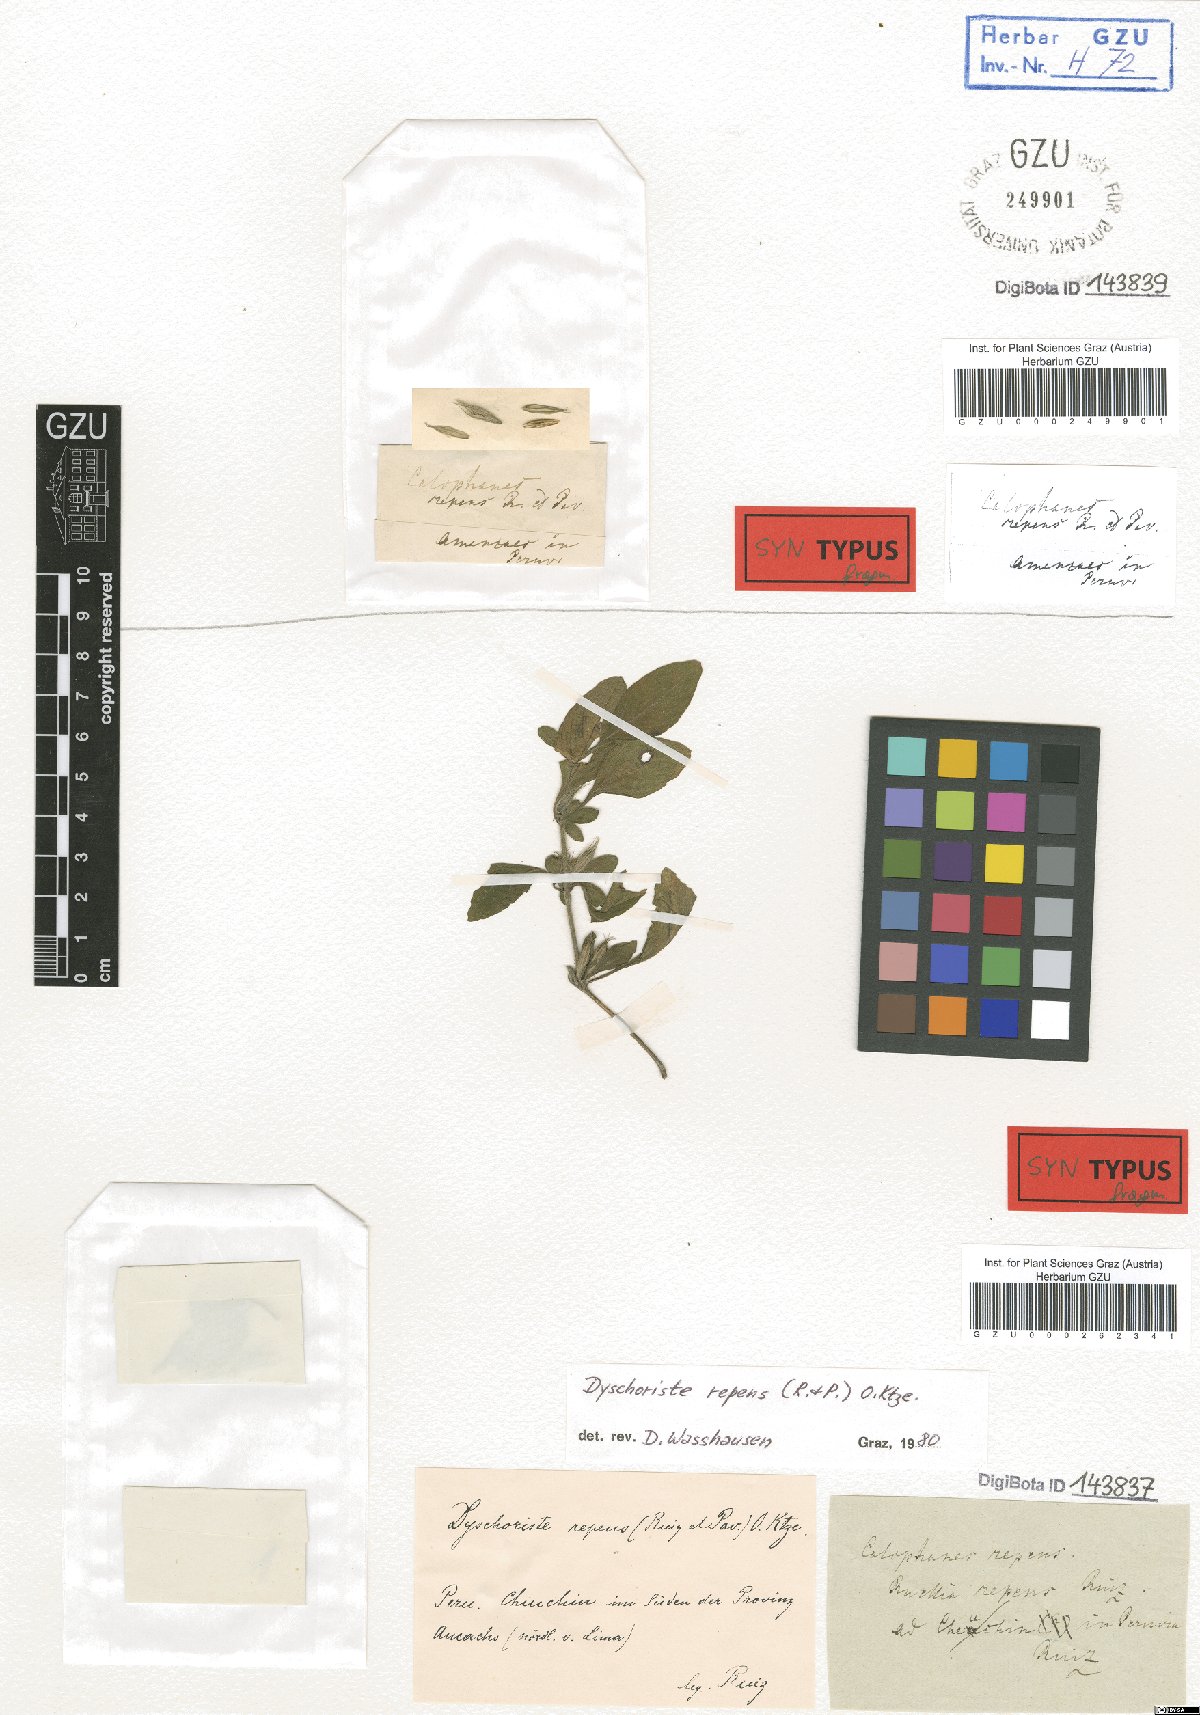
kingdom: Plantae
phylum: Tracheophyta
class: Magnoliopsida
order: Lamiales
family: Acanthaceae
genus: Dyschoriste
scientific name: Dyschoriste repens
